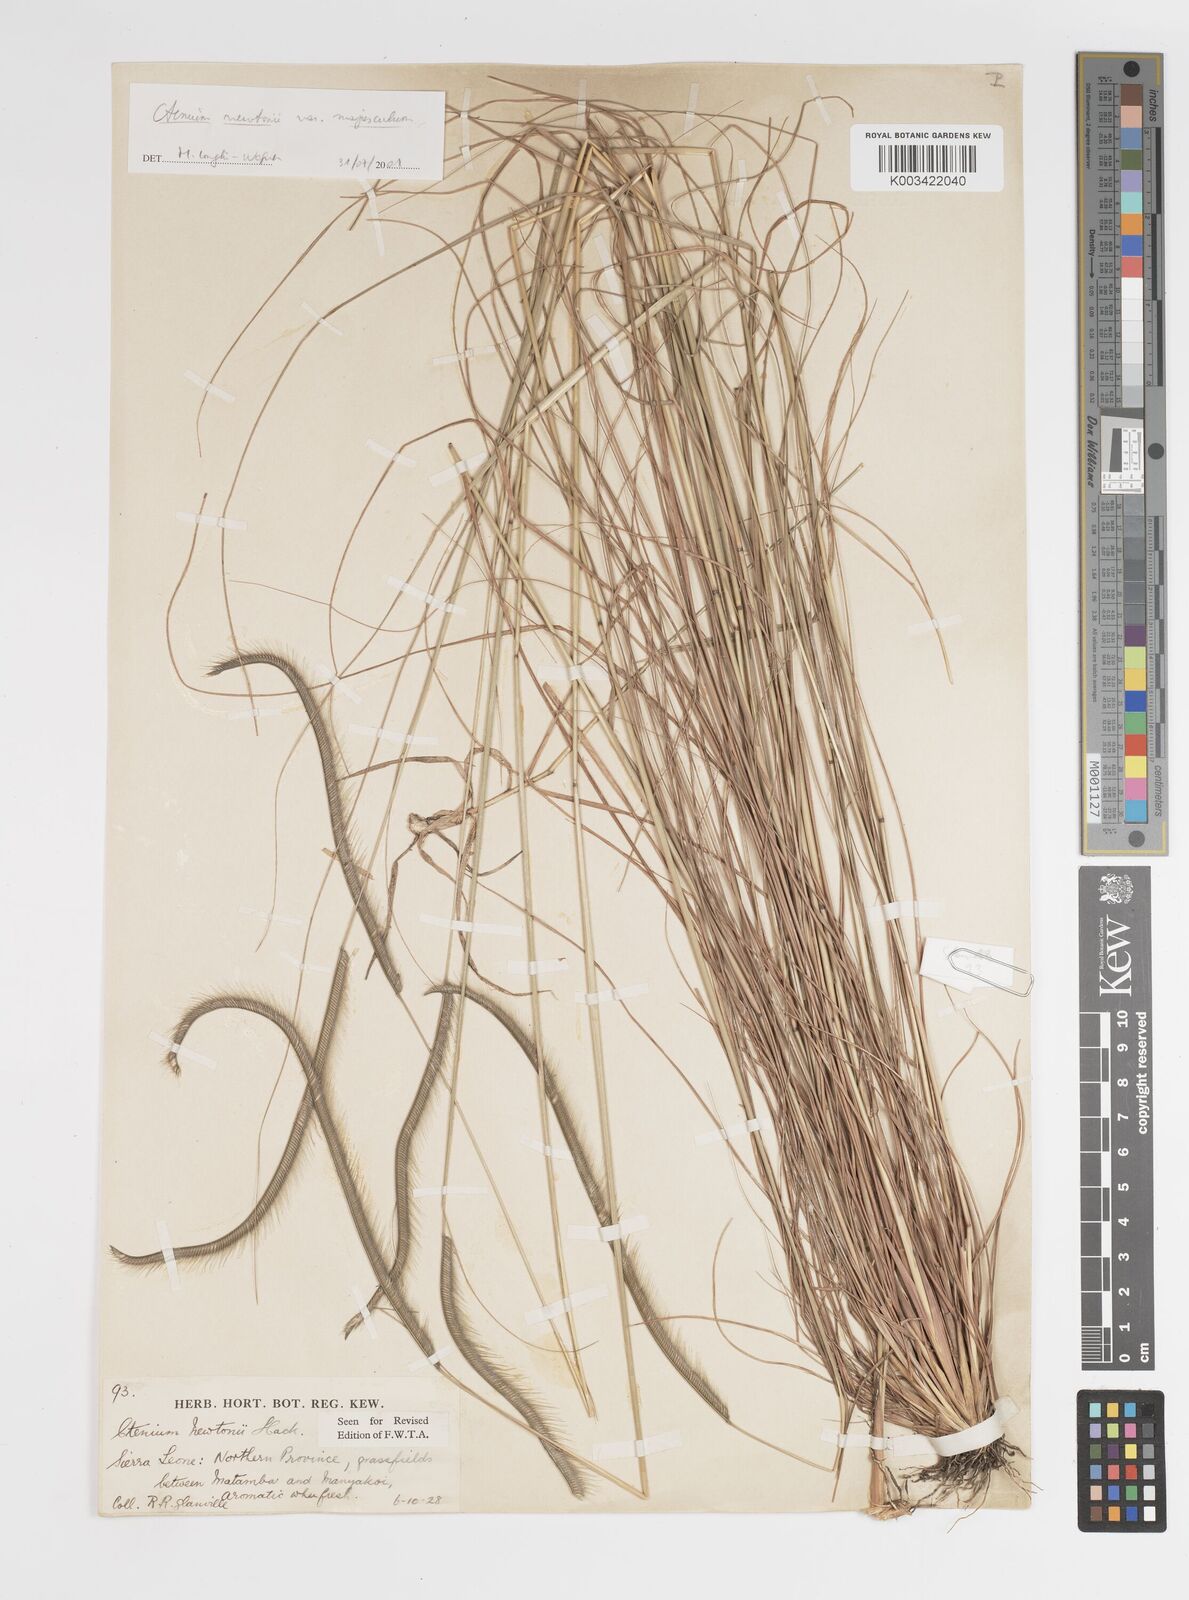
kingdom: Plantae
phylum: Tracheophyta
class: Liliopsida
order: Poales
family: Poaceae
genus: Ctenium
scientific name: Ctenium newtonii
